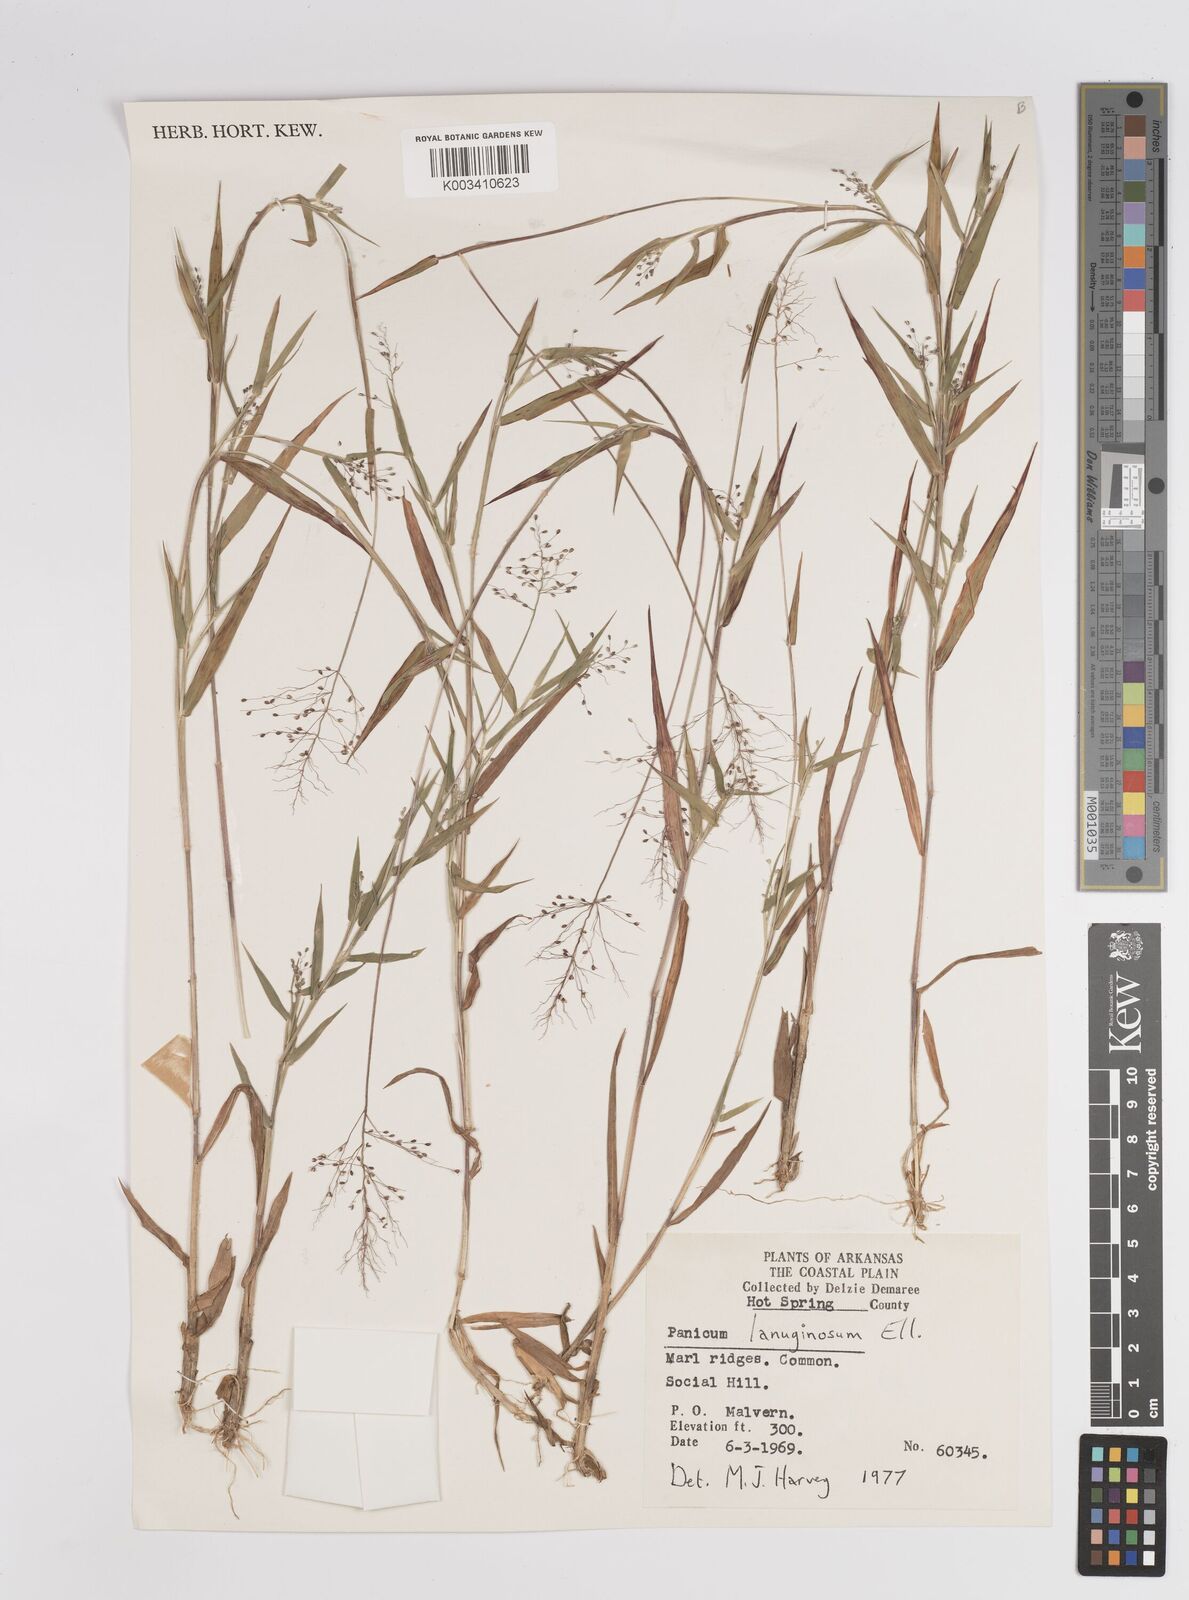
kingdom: Plantae
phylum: Tracheophyta
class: Liliopsida
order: Poales
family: Poaceae
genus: Dichanthelium
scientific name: Dichanthelium lanuginosum
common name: Woolly panicgrass
